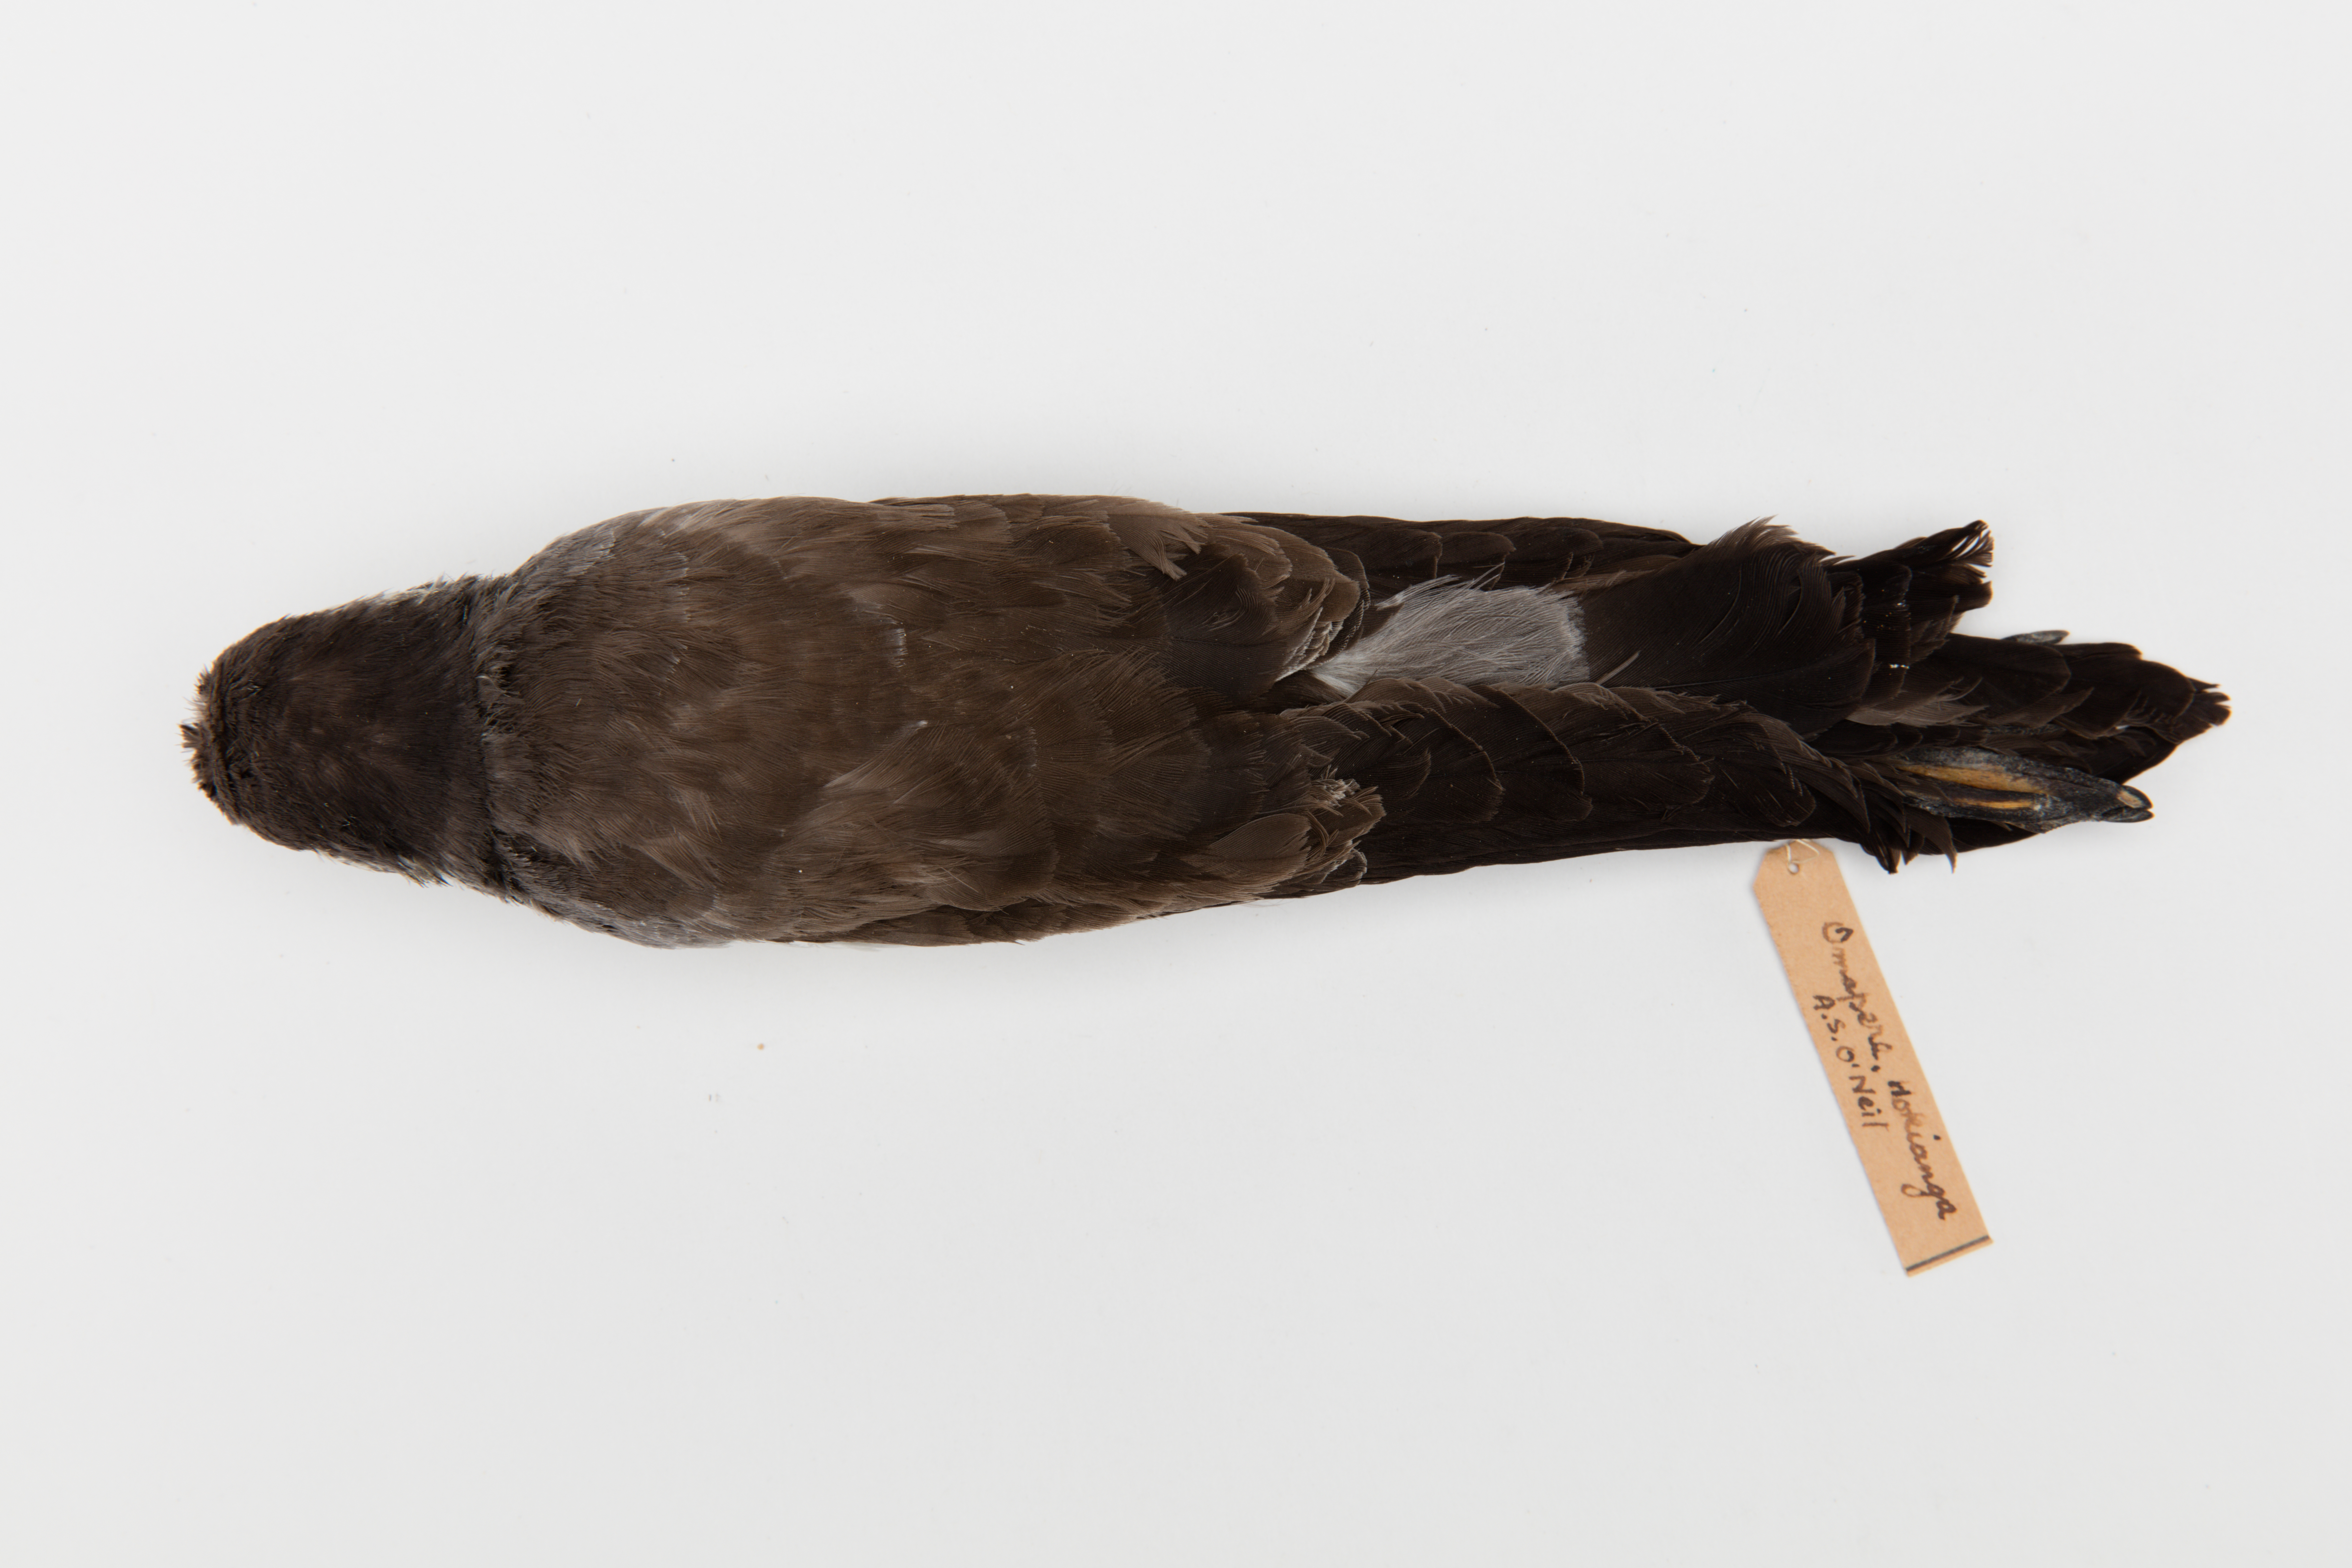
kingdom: Animalia
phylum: Chordata
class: Aves
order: Procellariiformes
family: Hydrobatidae
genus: Pelagodroma
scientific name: Pelagodroma marina
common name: White-faced storm-petrel
